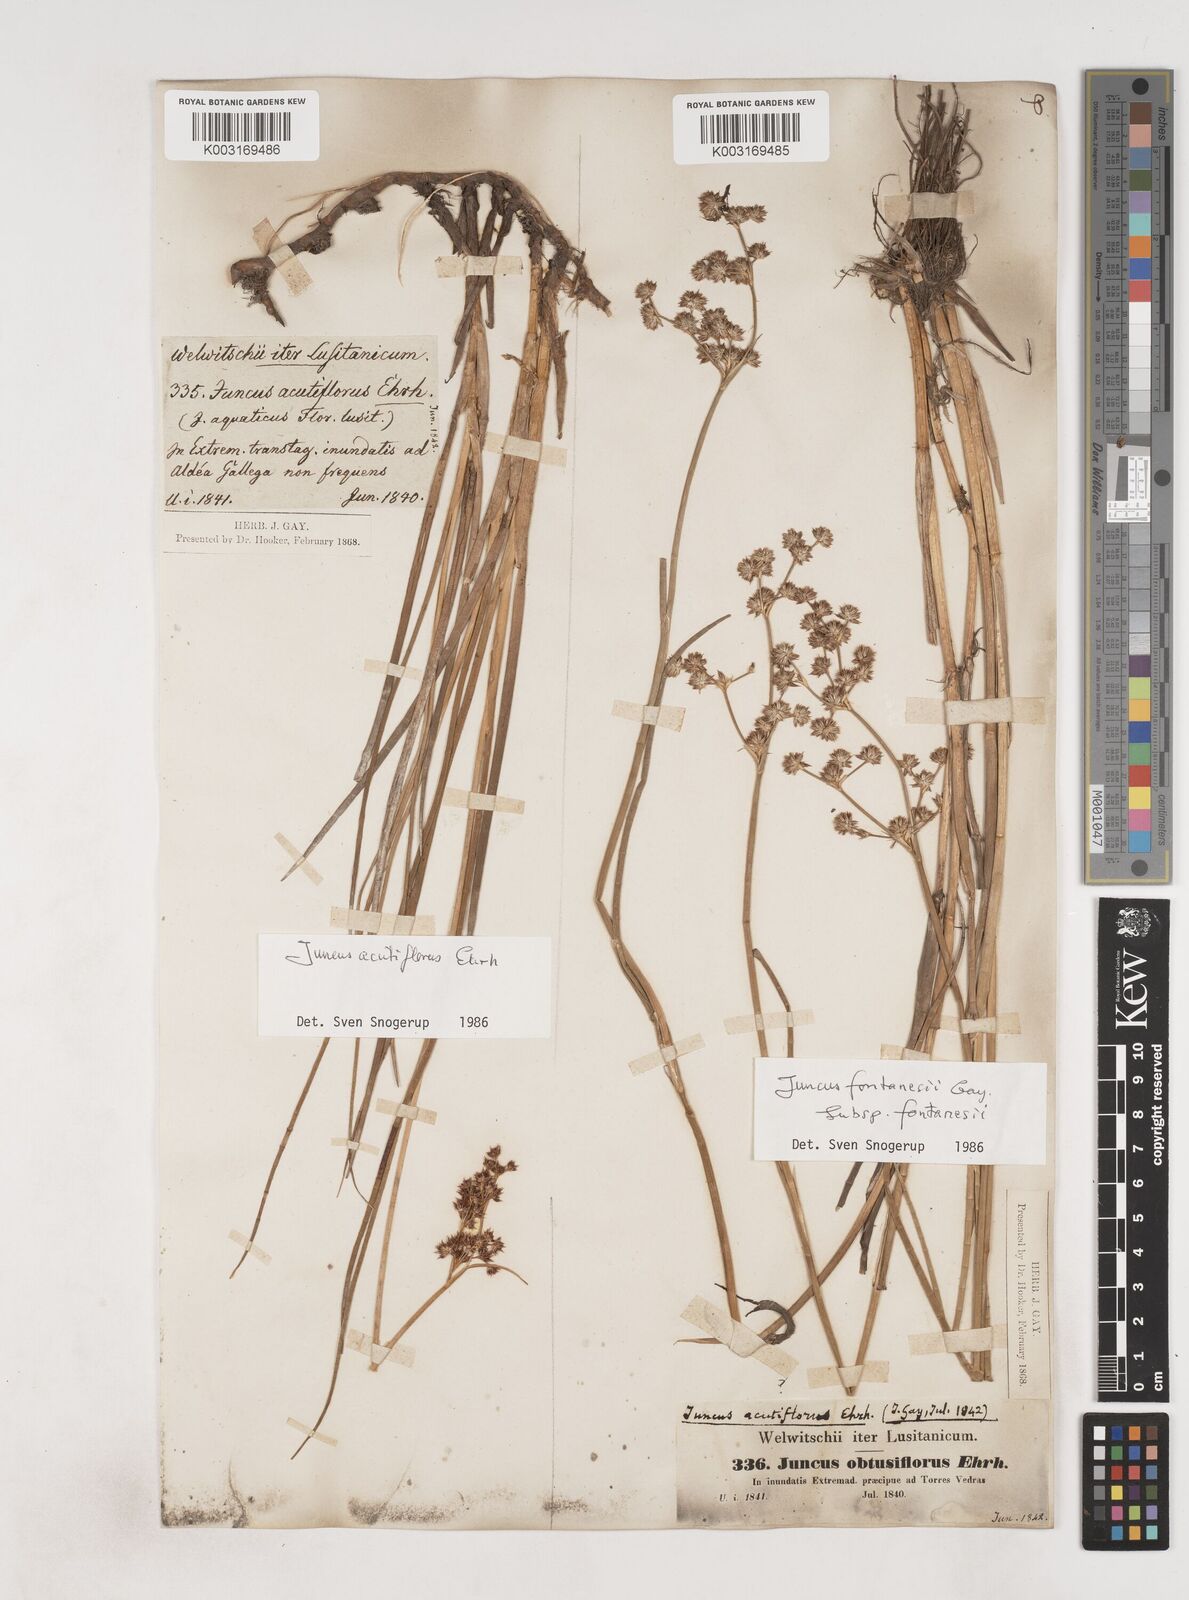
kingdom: Plantae
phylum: Tracheophyta
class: Liliopsida
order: Poales
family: Juncaceae
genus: Juncus
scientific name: Juncus acutiflorus
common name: Sharp-flowered rush
